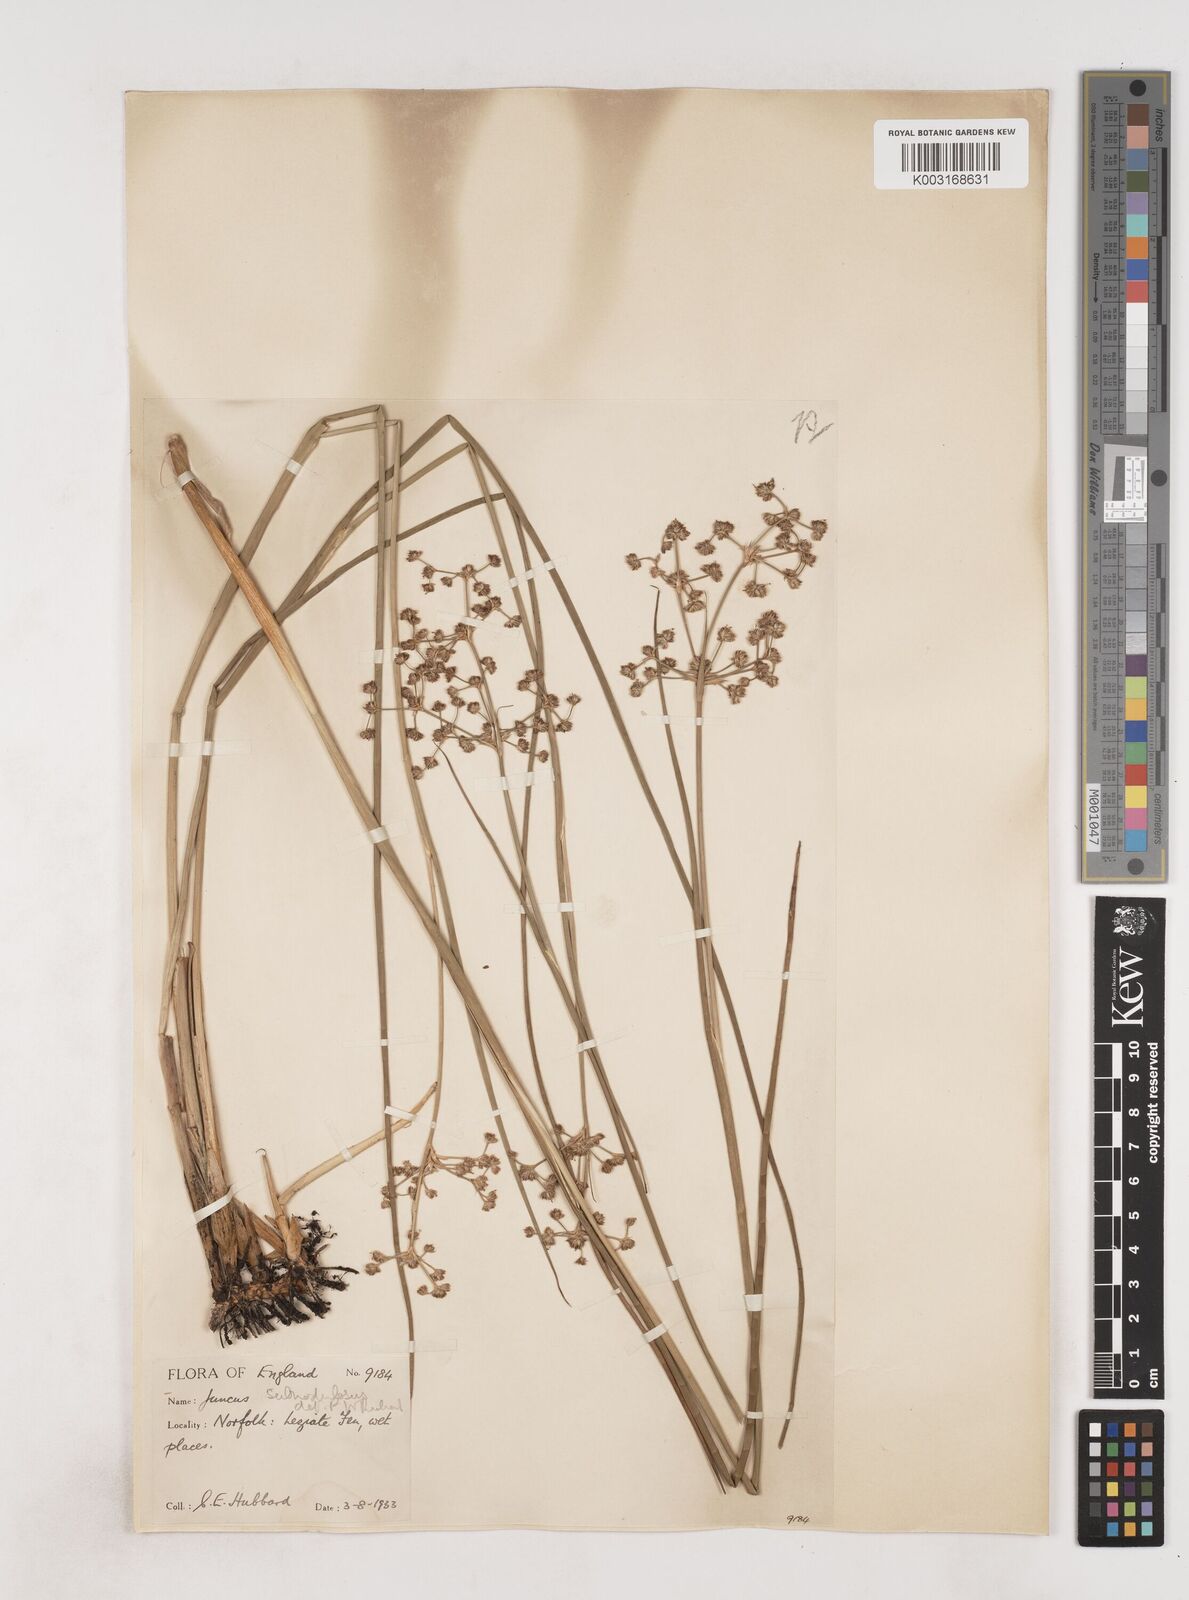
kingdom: Plantae
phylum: Tracheophyta
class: Liliopsida
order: Poales
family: Juncaceae
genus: Juncus
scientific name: Juncus subnodulosus
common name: Blunt-flowered rush
